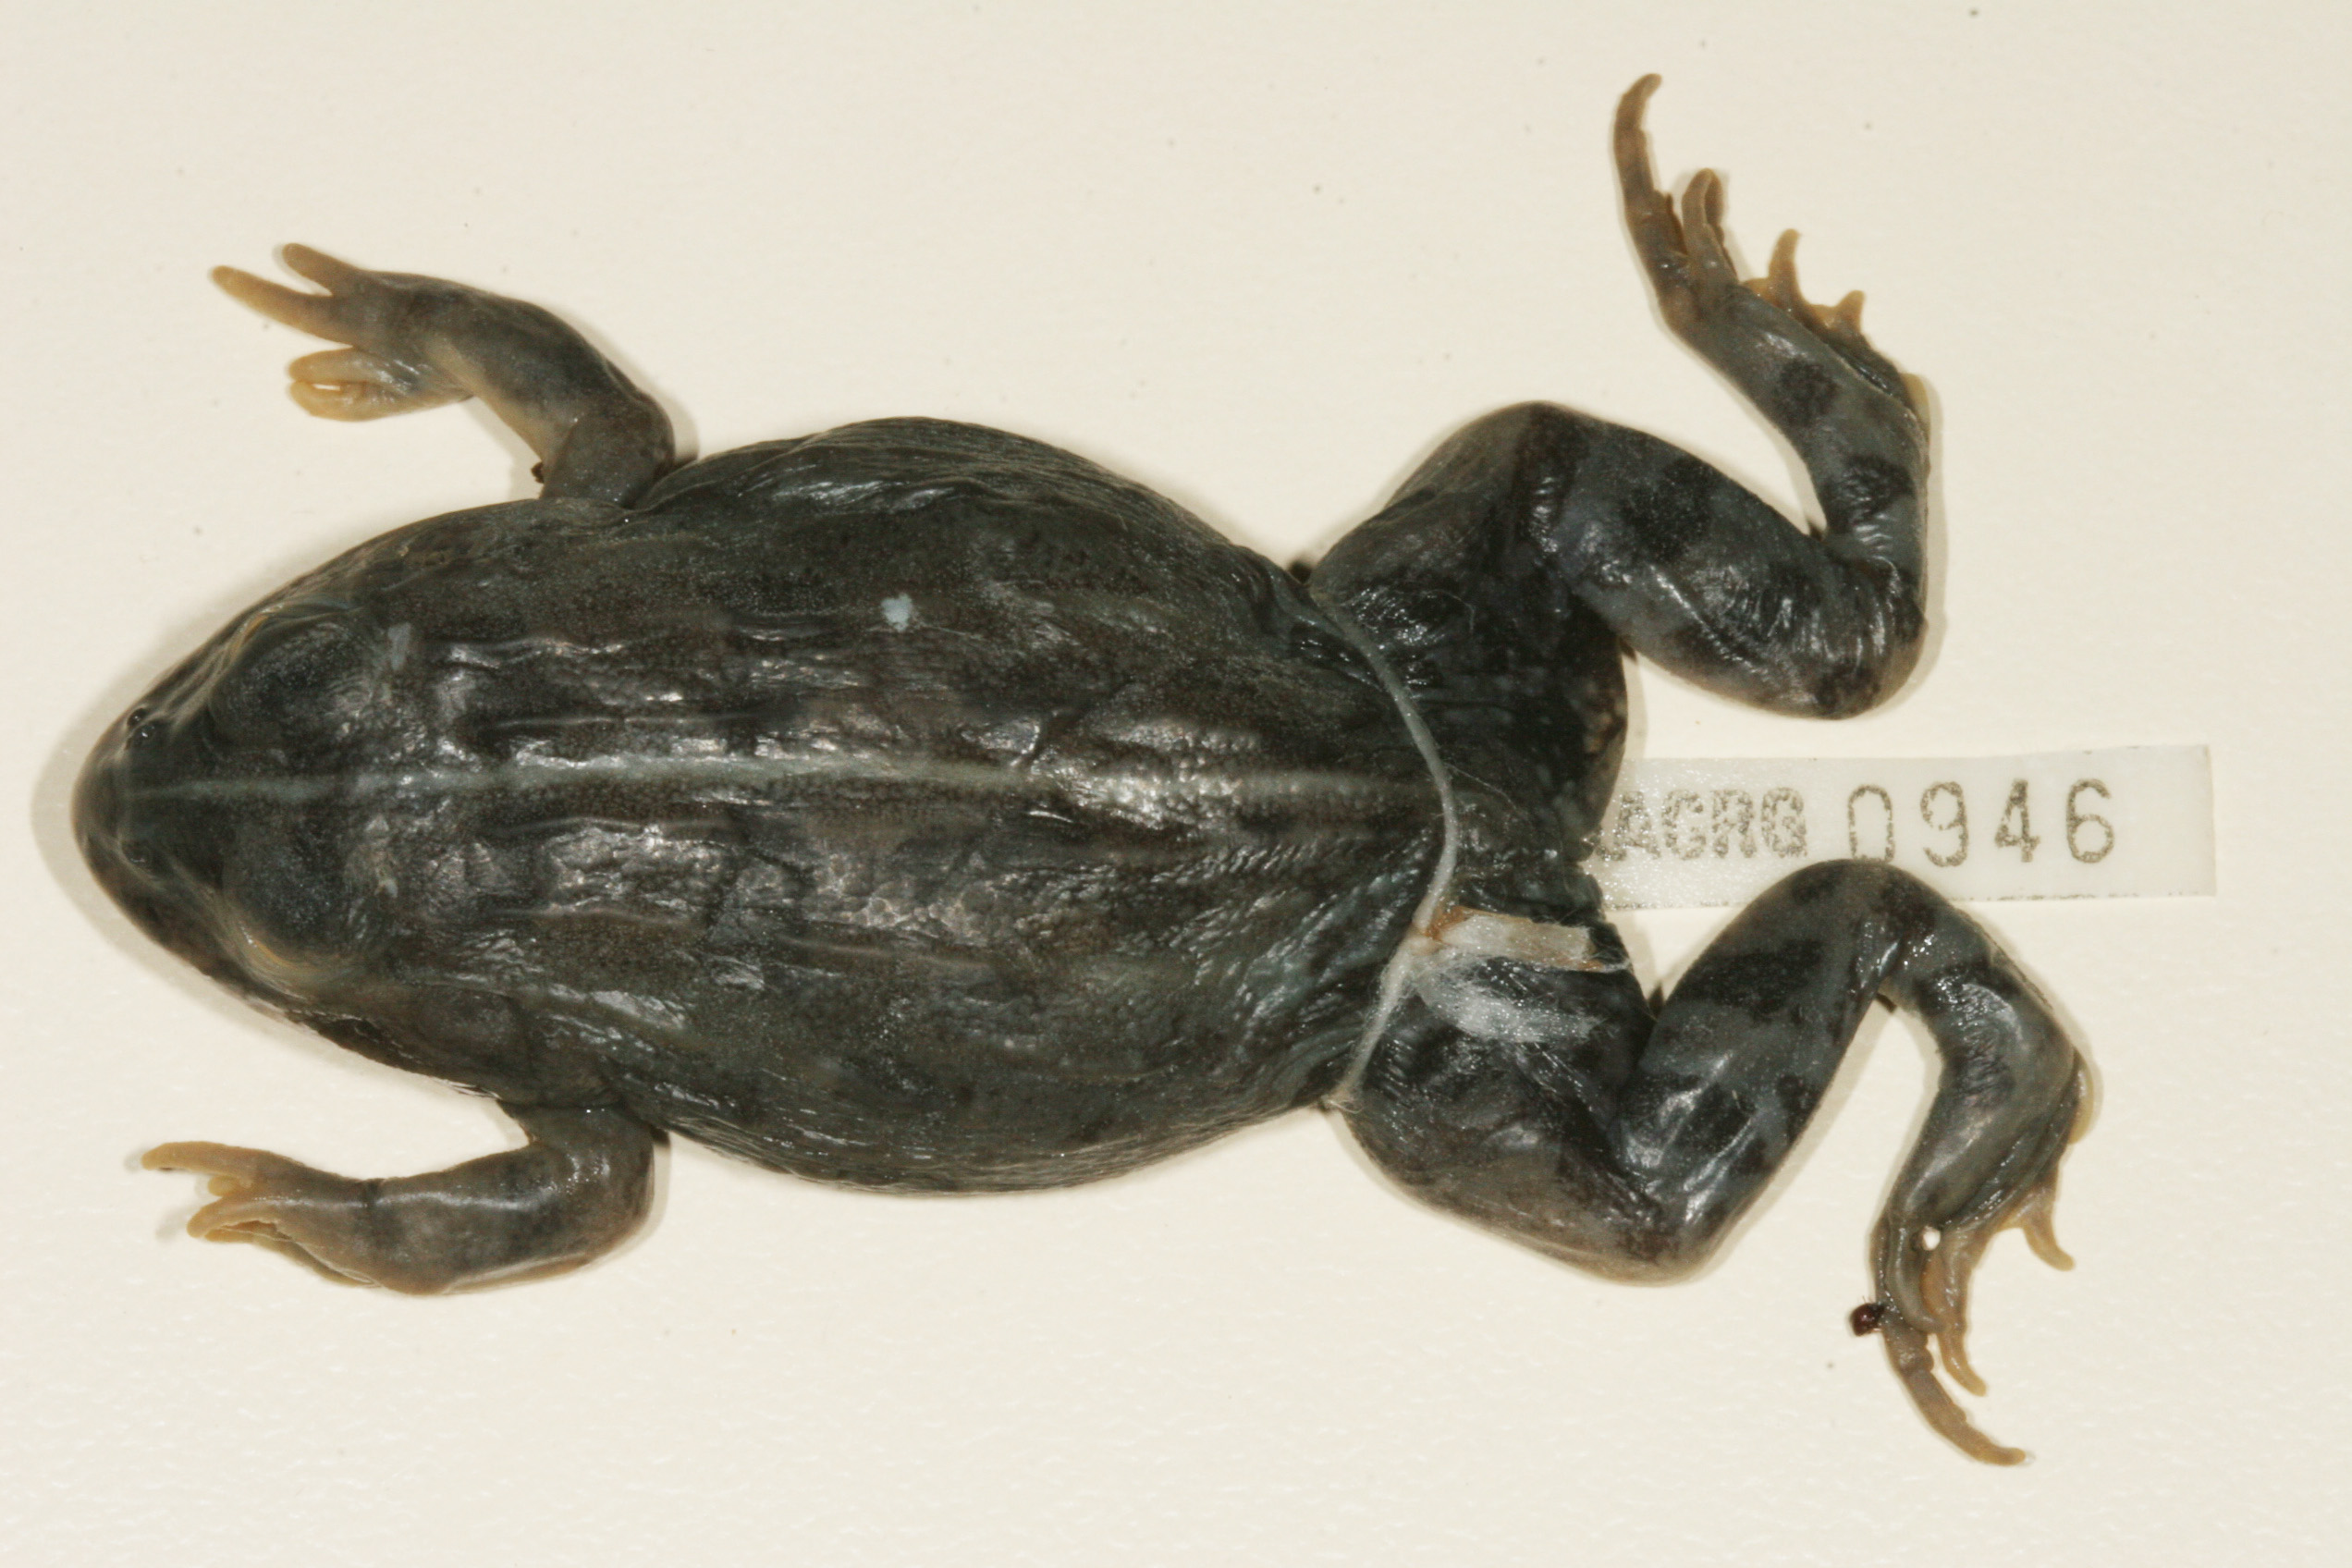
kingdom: Animalia
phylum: Chordata
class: Amphibia
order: Anura
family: Pyxicephalidae
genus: Pyxicephalus
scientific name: Pyxicephalus edulis
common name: Peter's bullfrog
